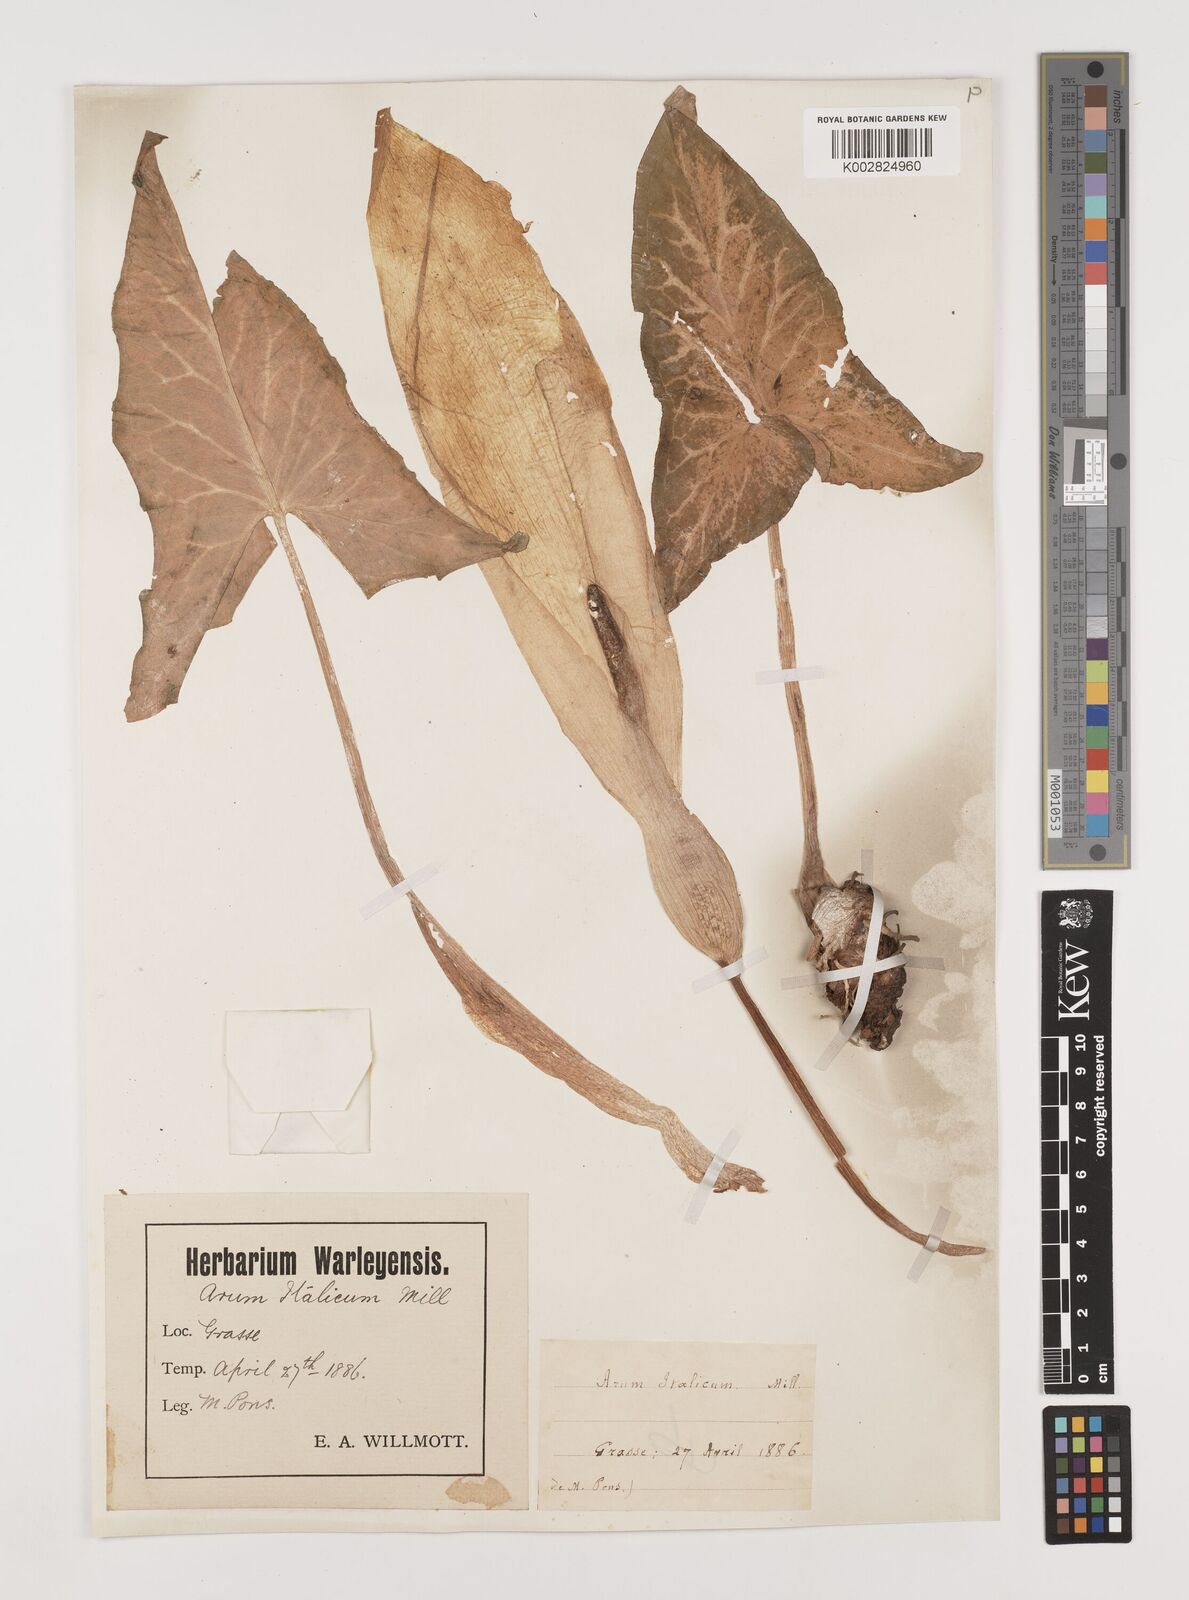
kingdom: Plantae
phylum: Tracheophyta
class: Liliopsida
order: Alismatales
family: Araceae
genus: Arum
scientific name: Arum italicum
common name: Italian lords-and-ladies
